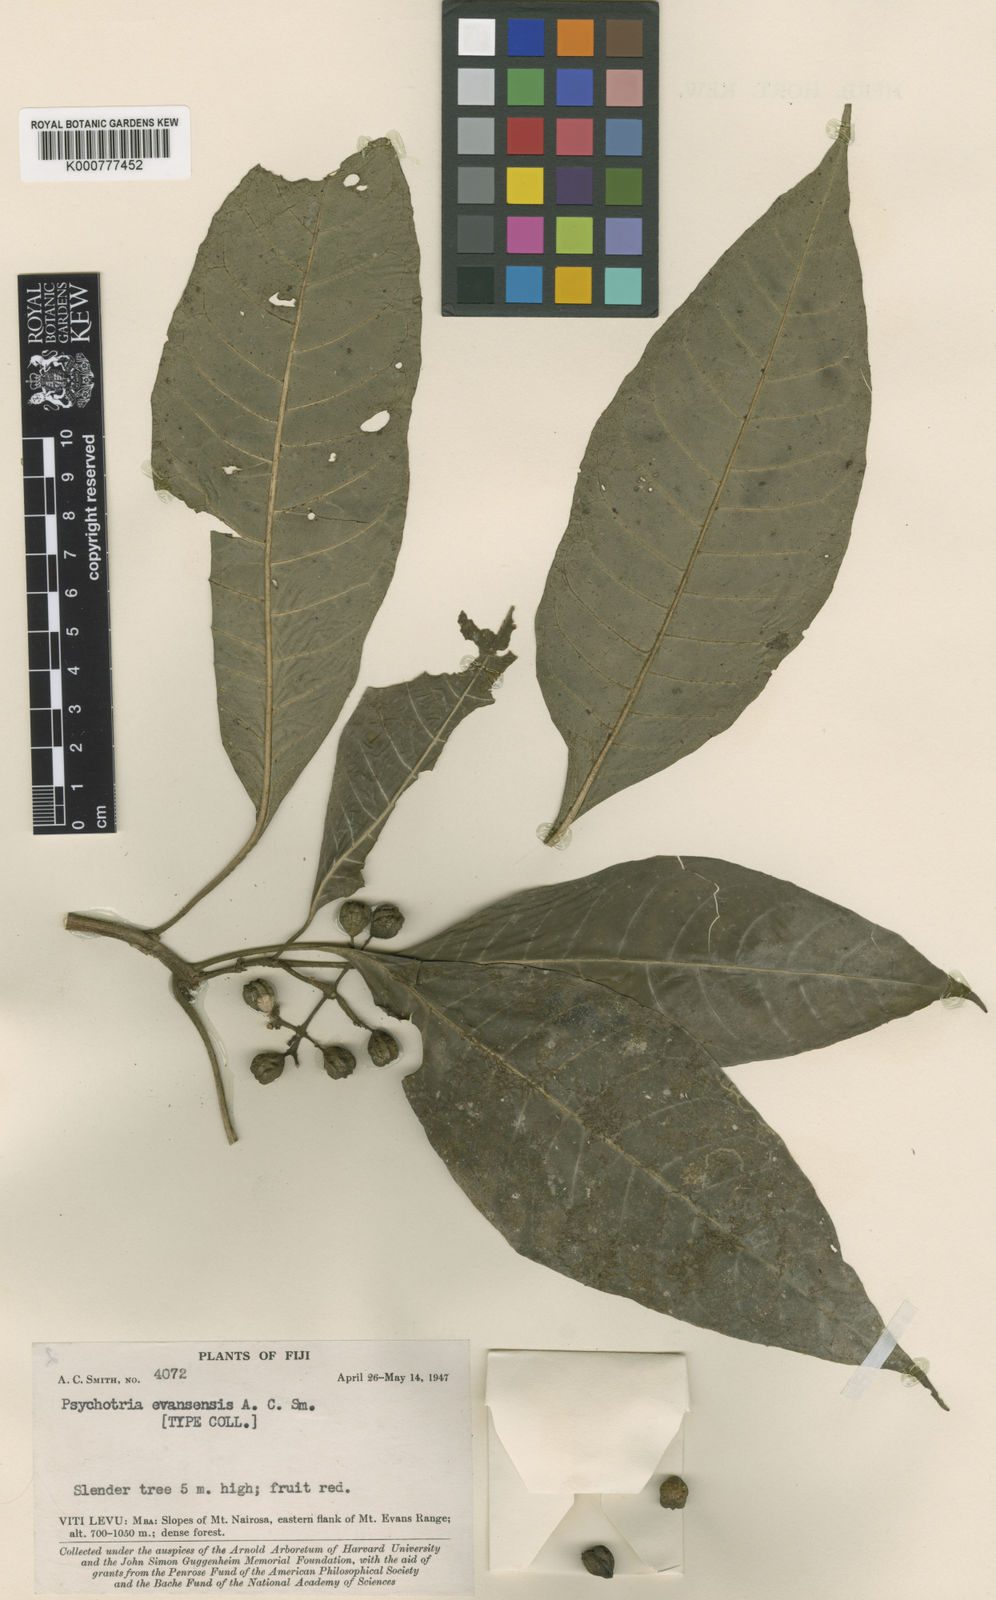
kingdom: Plantae
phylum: Tracheophyta
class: Magnoliopsida
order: Gentianales
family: Rubiaceae
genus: Eumachia
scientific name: Eumachia evansensis
